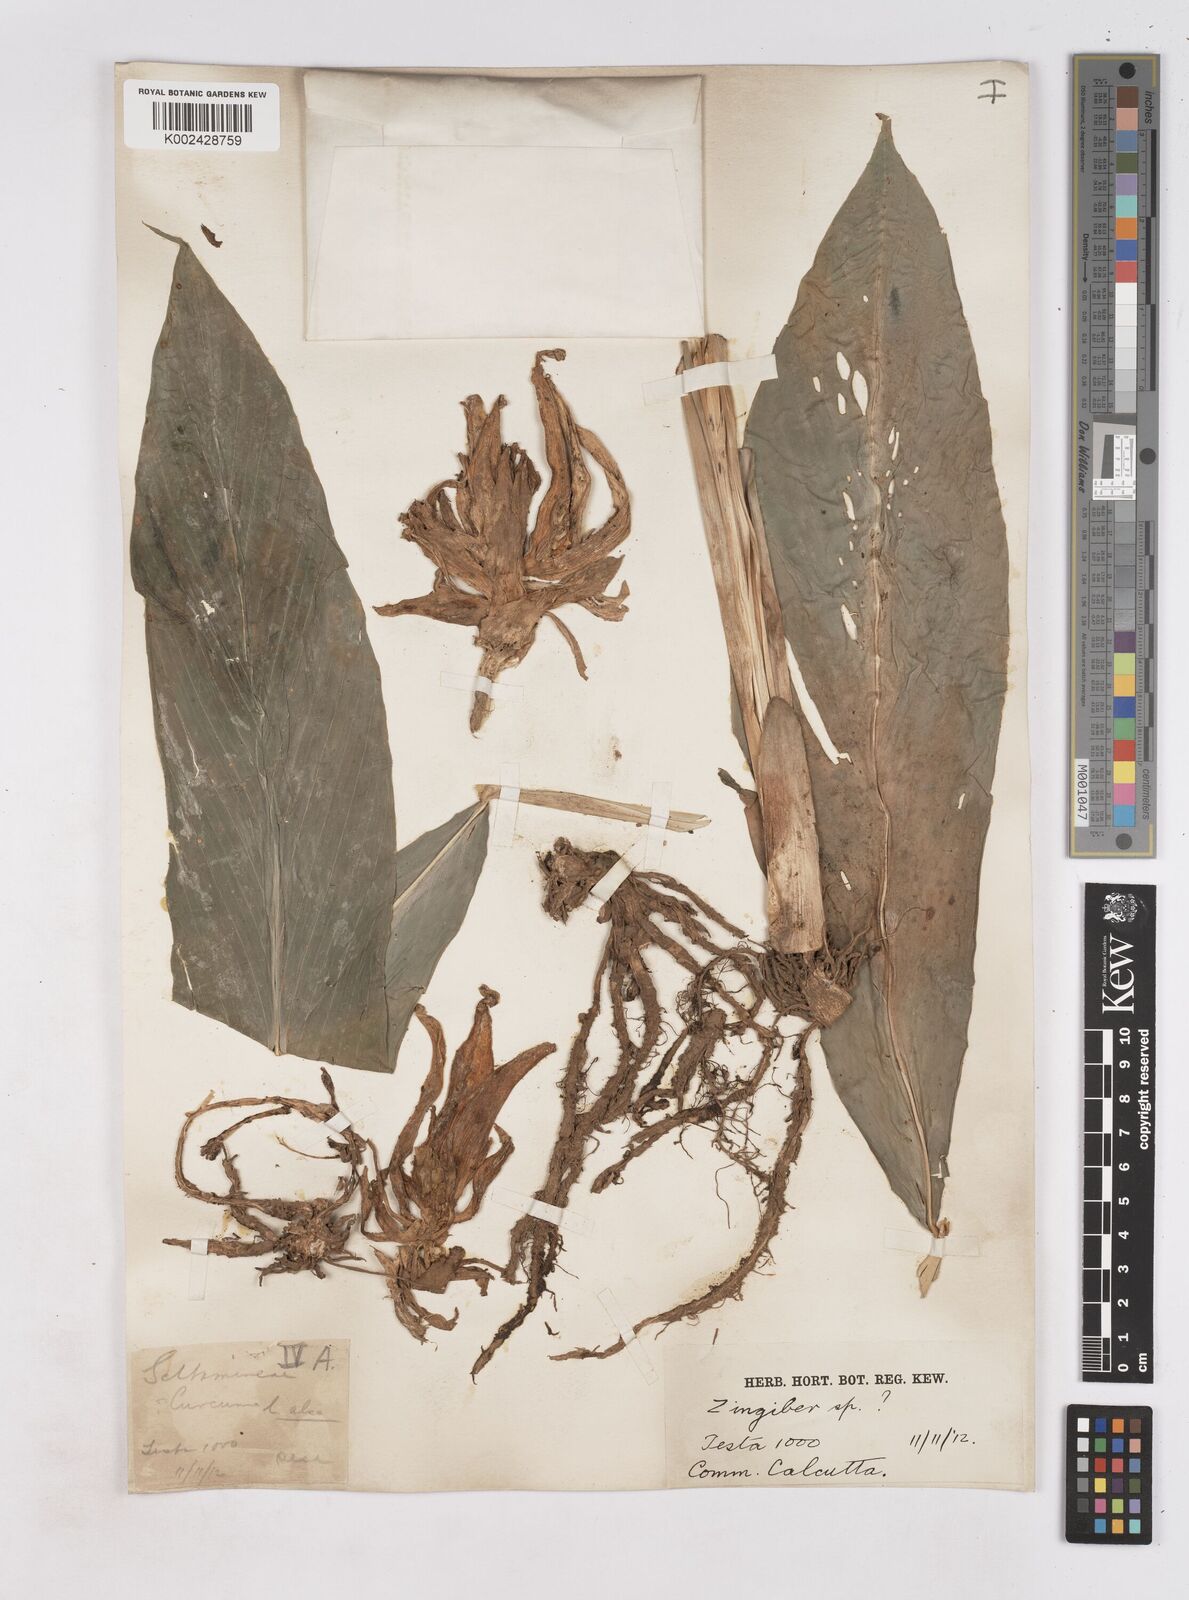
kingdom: Plantae
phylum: Tracheophyta
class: Liliopsida
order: Zingiberales
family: Zingiberaceae
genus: Zingiber
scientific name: Zingiber
